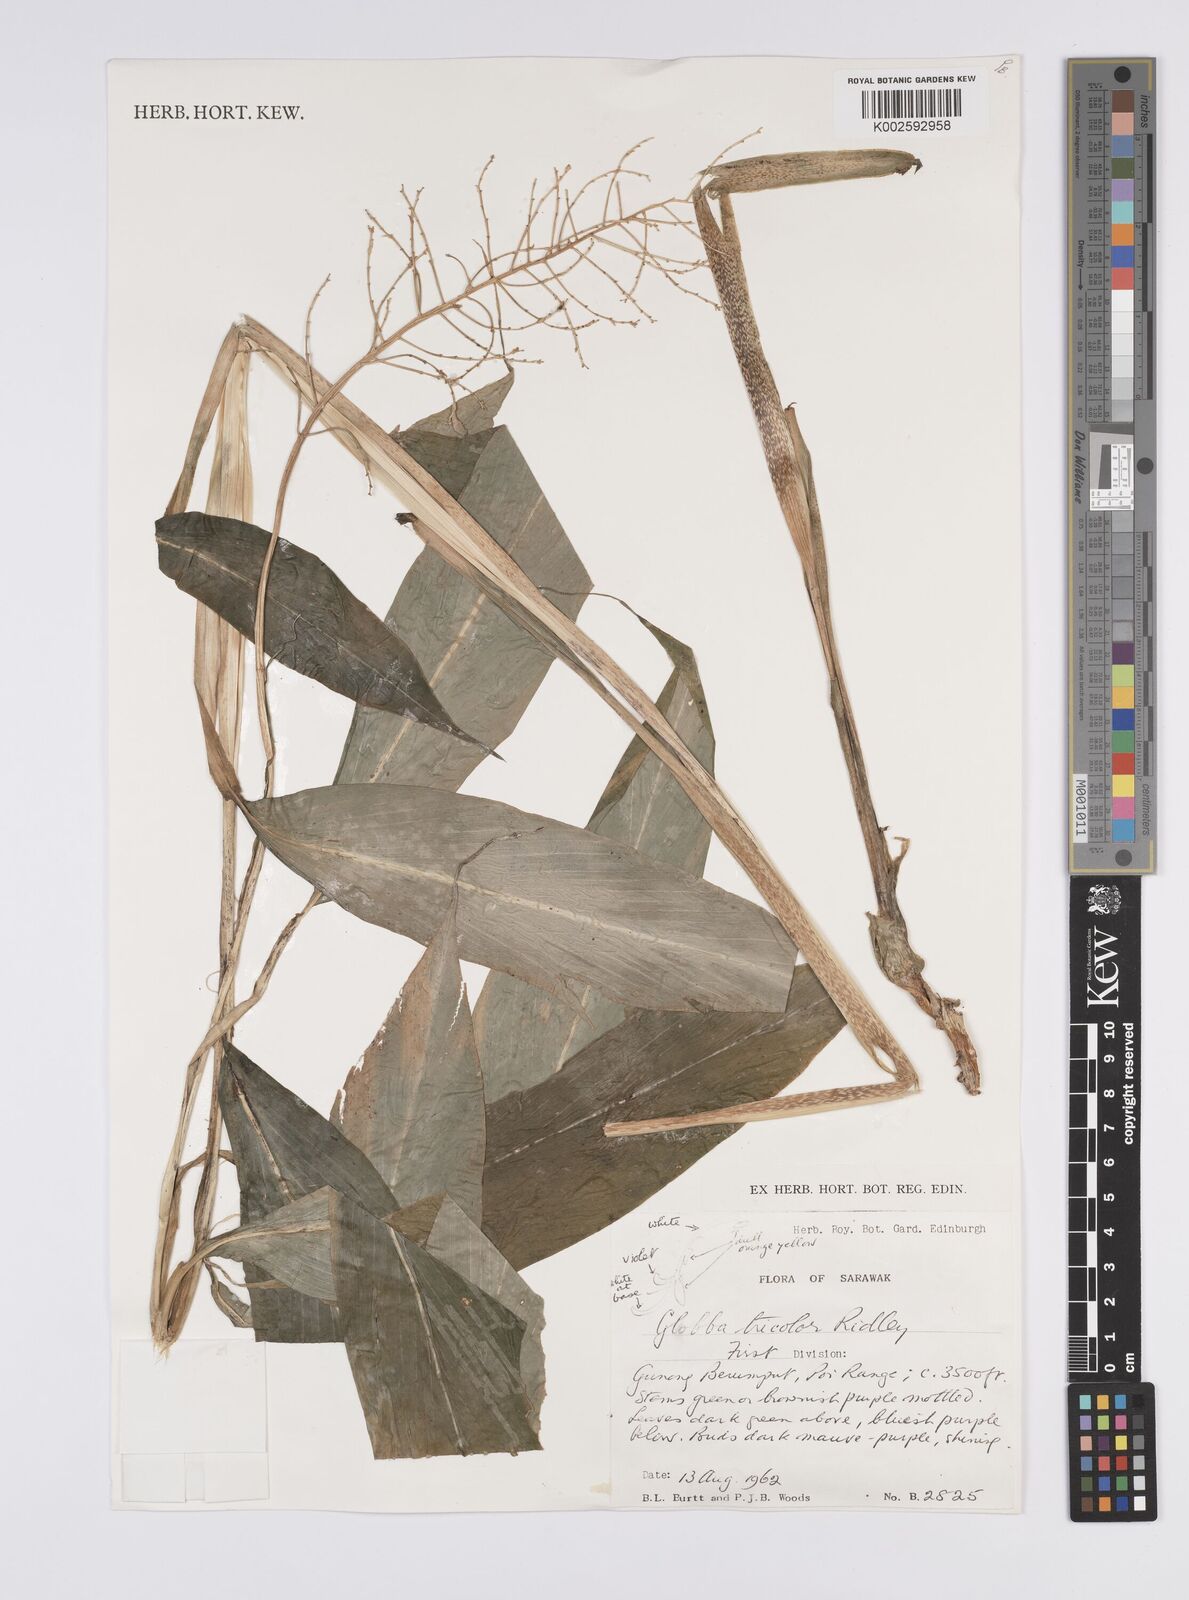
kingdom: Plantae
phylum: Tracheophyta
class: Liliopsida
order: Zingiberales
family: Zingiberaceae
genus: Globba
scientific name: Globba tricolor
